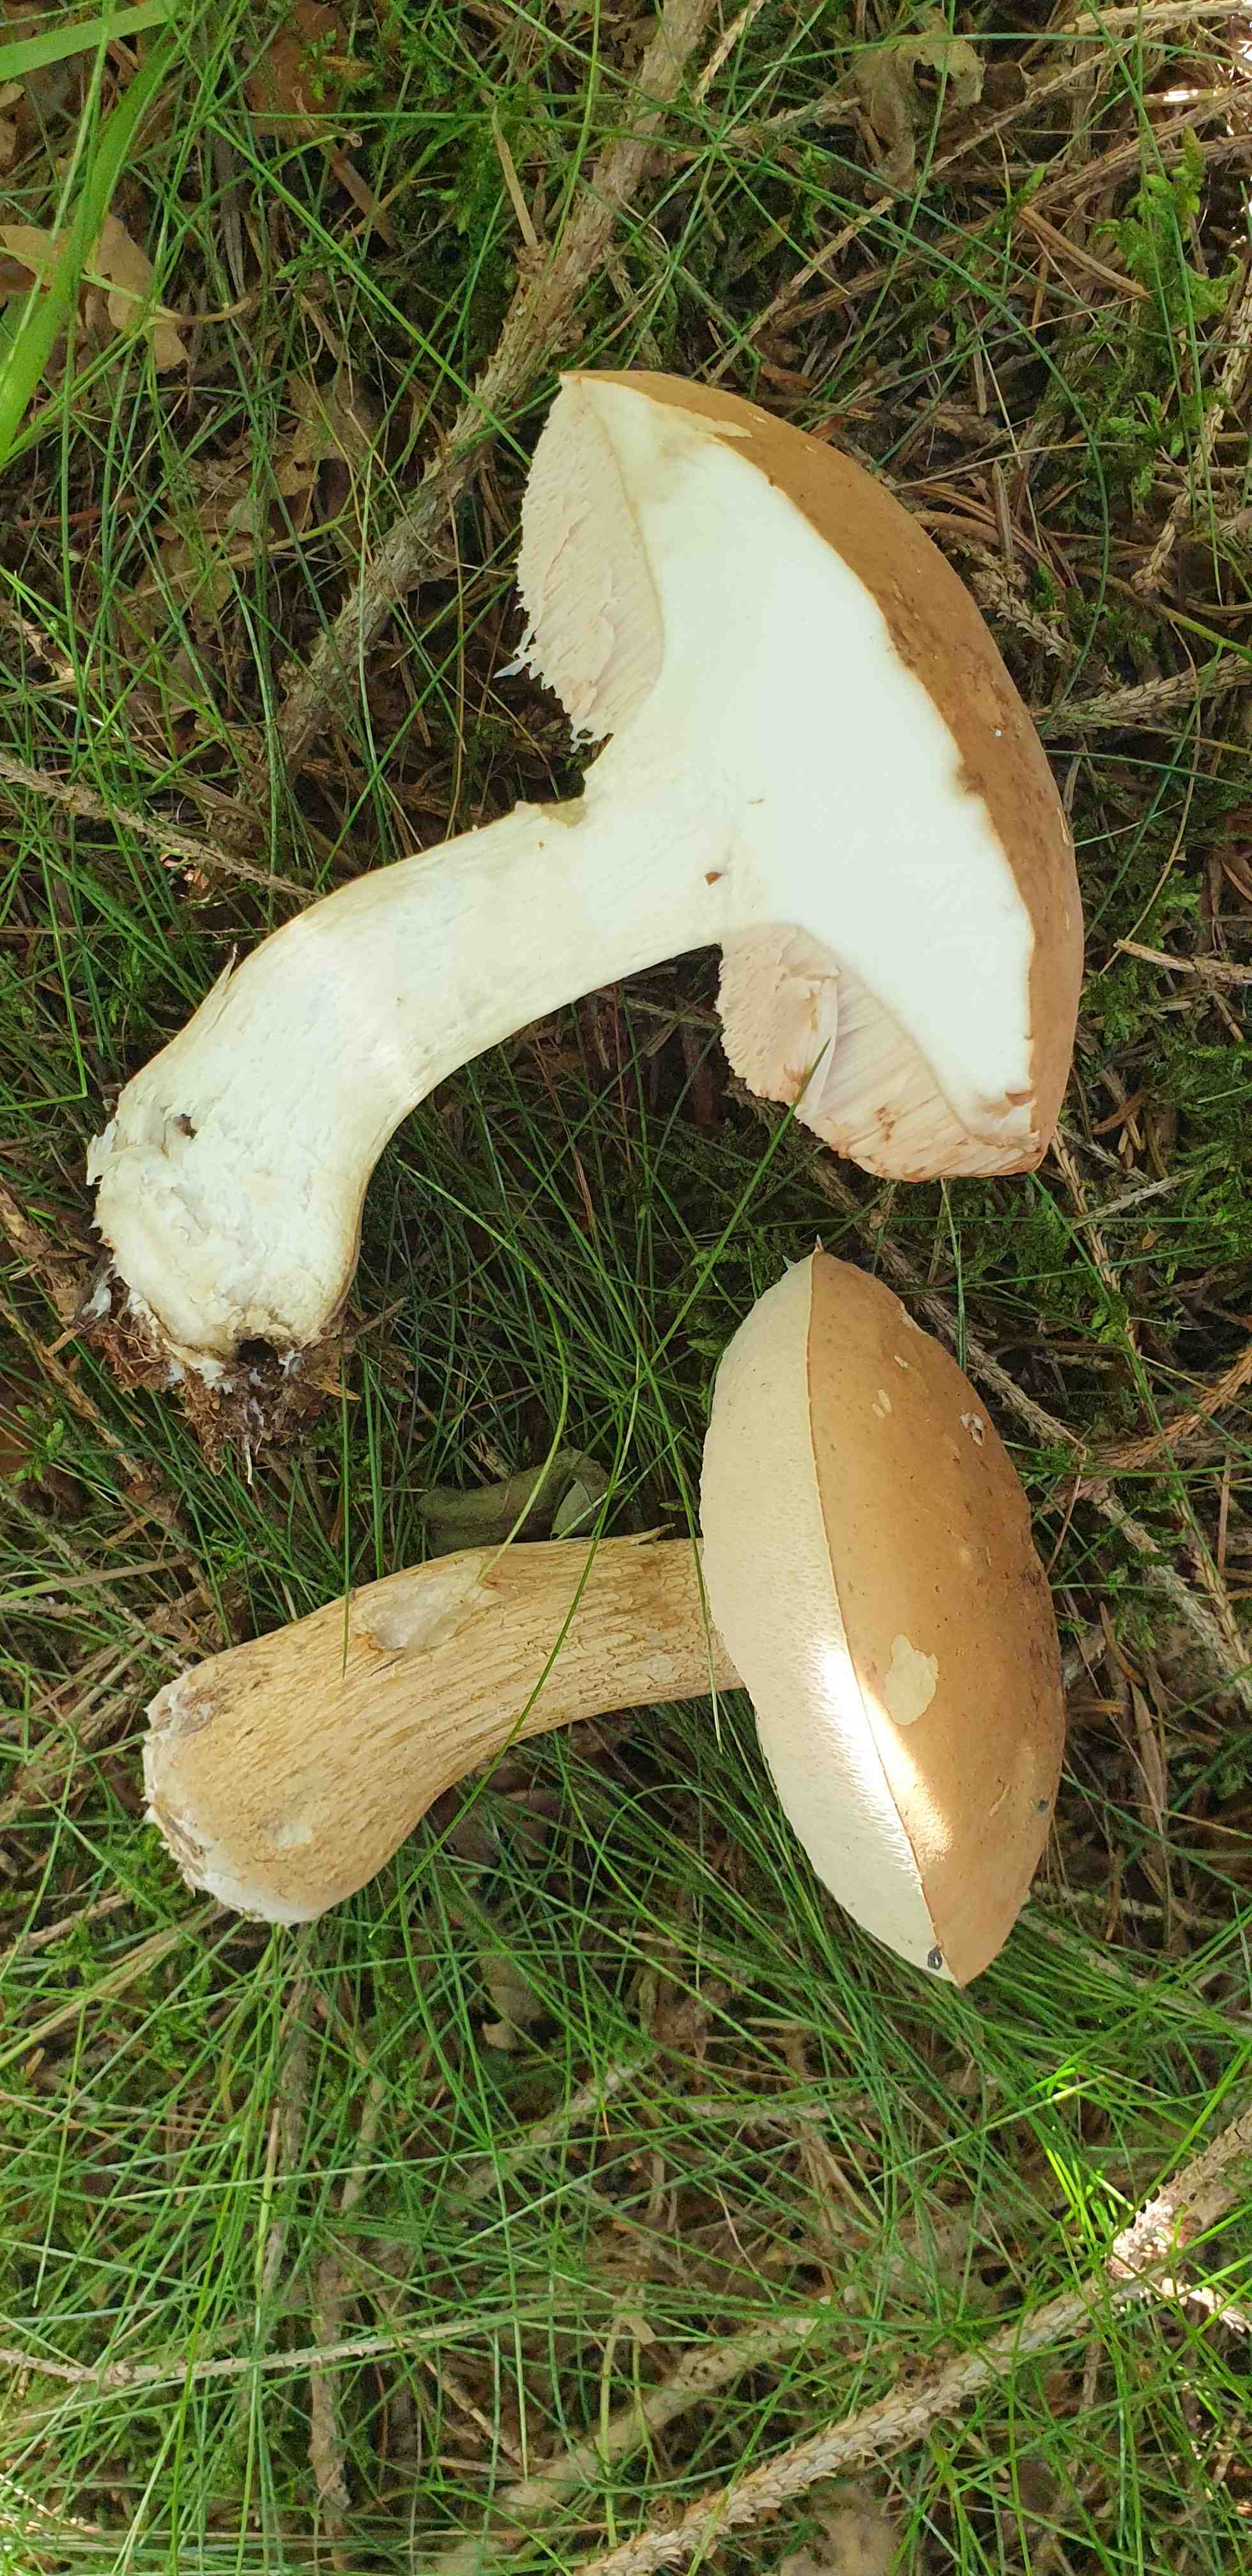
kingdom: Fungi
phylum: Basidiomycota
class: Agaricomycetes
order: Boletales
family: Boletaceae
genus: Tylopilus
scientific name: Tylopilus felleus
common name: galderørhat
